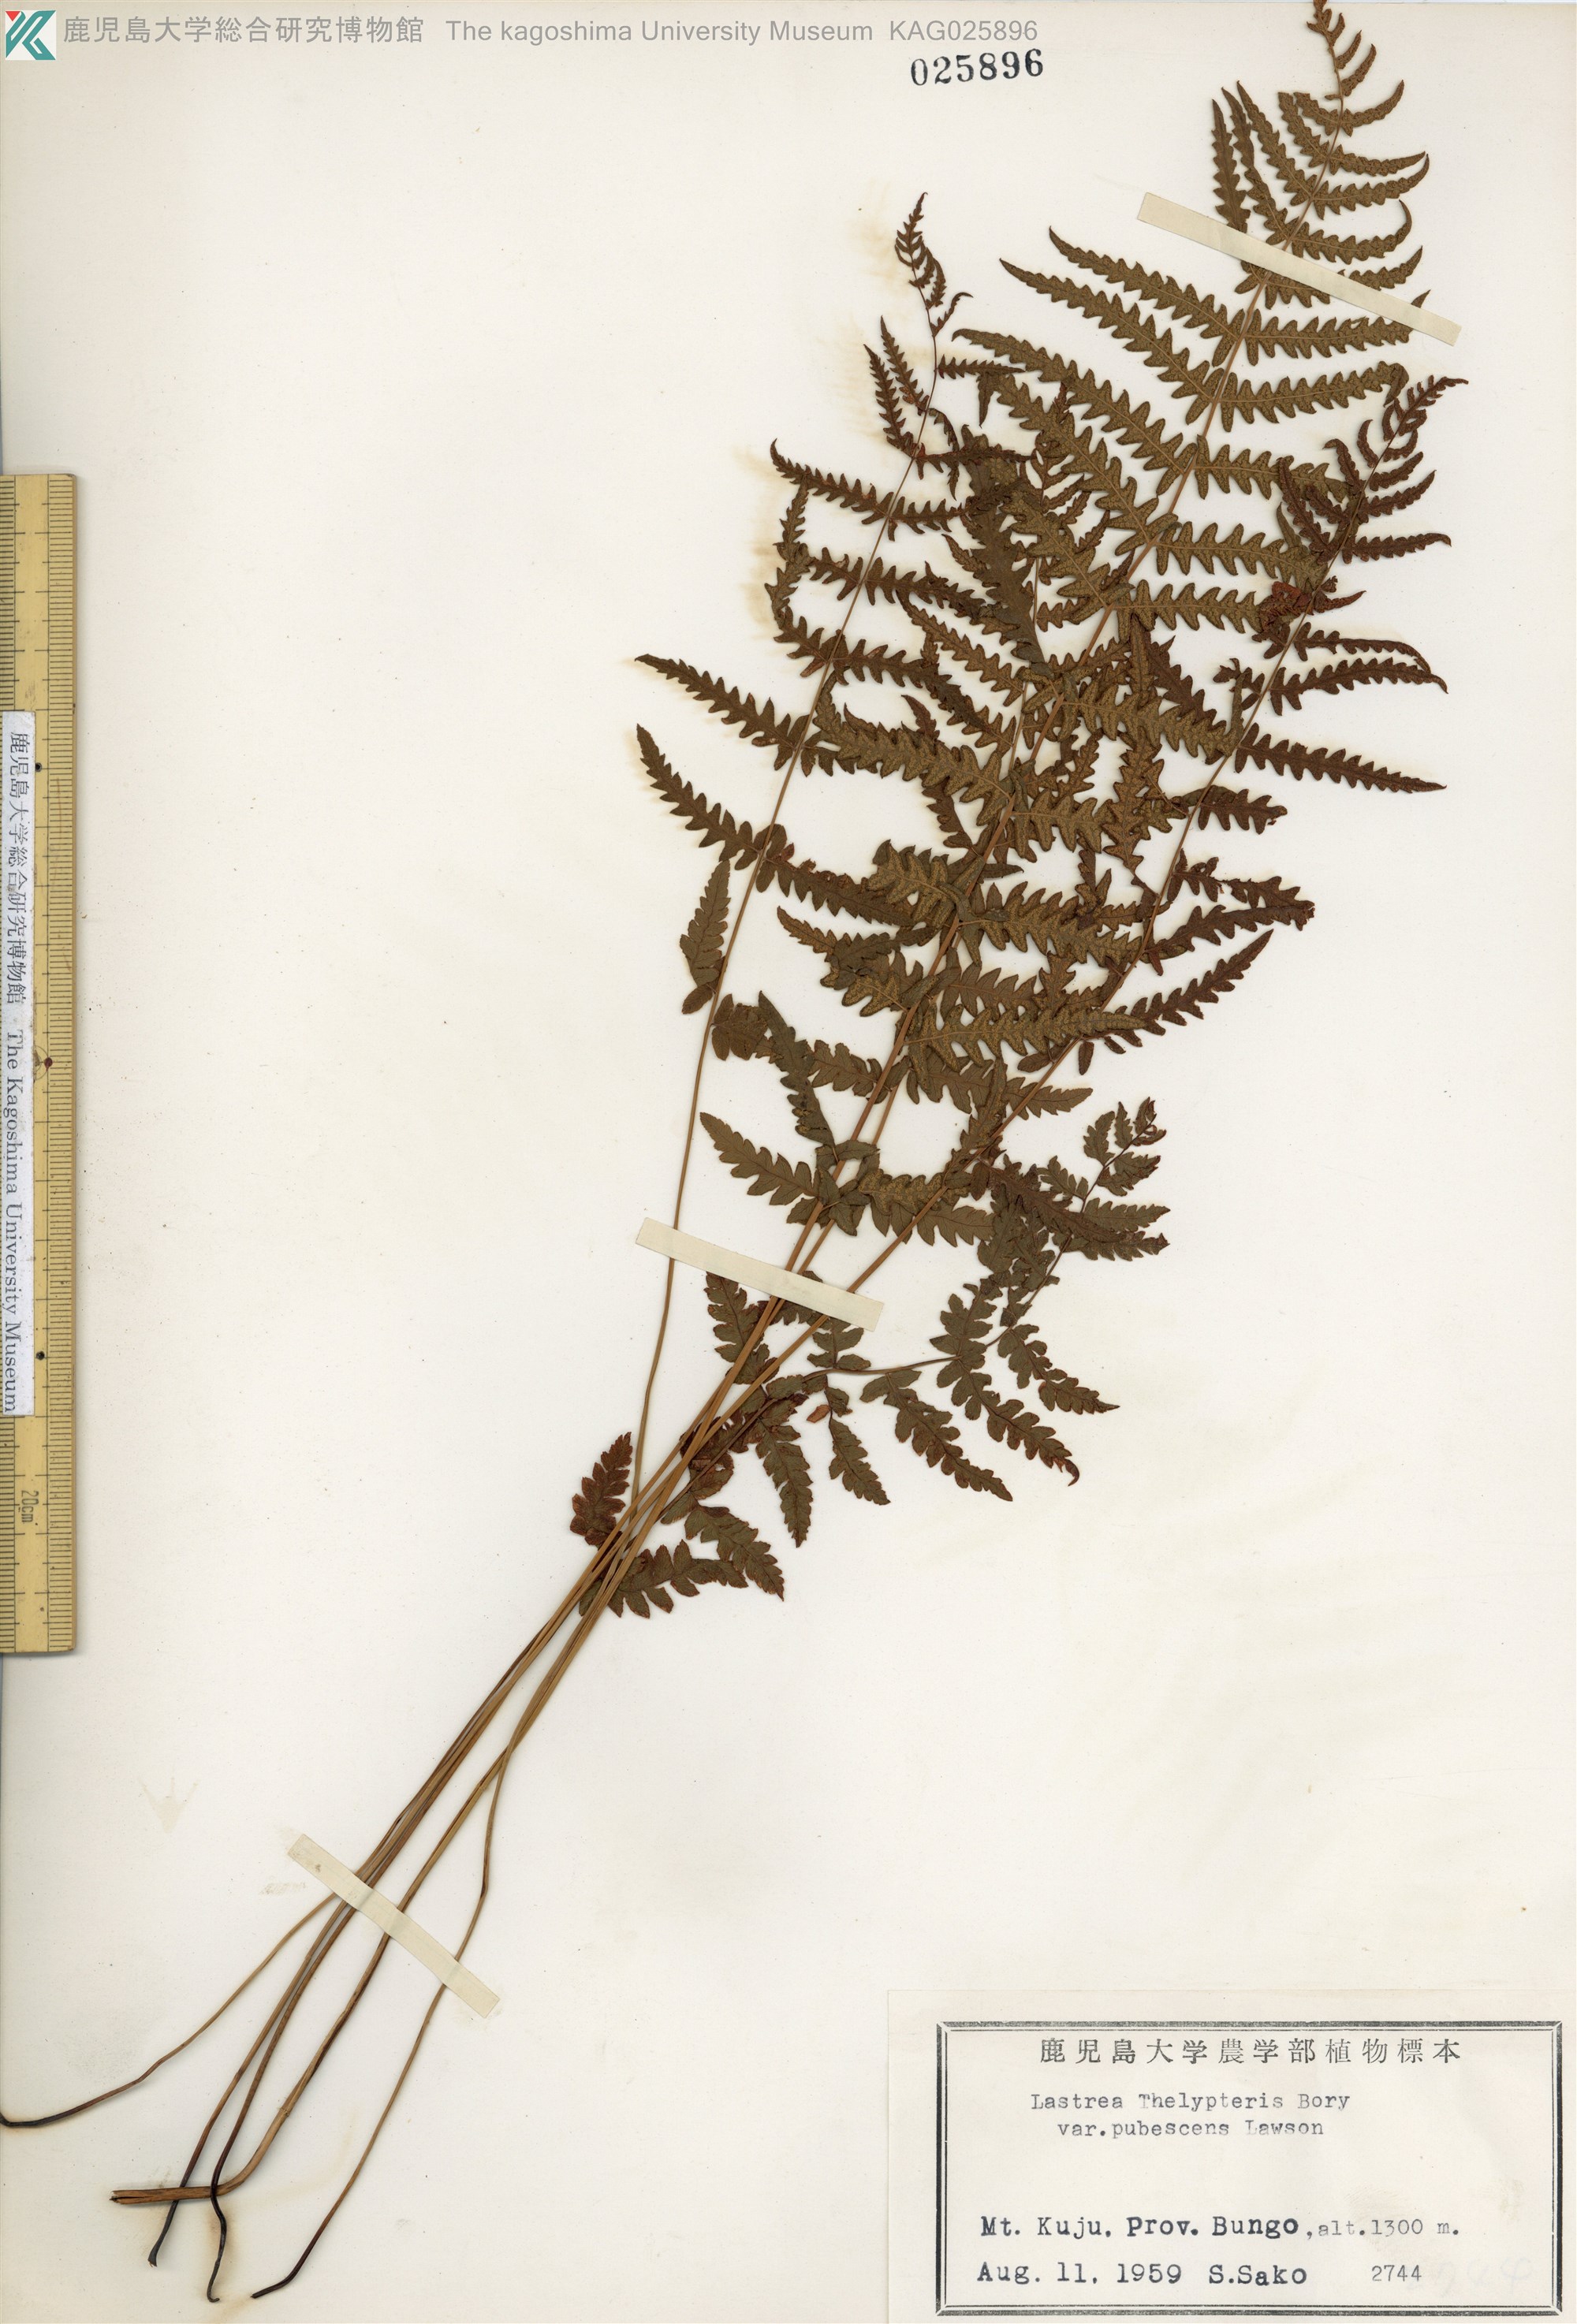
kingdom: Plantae
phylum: Tracheophyta
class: Polypodiopsida
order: Polypodiales
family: Thelypteridaceae
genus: Thelypteris
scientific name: Thelypteris palustris
